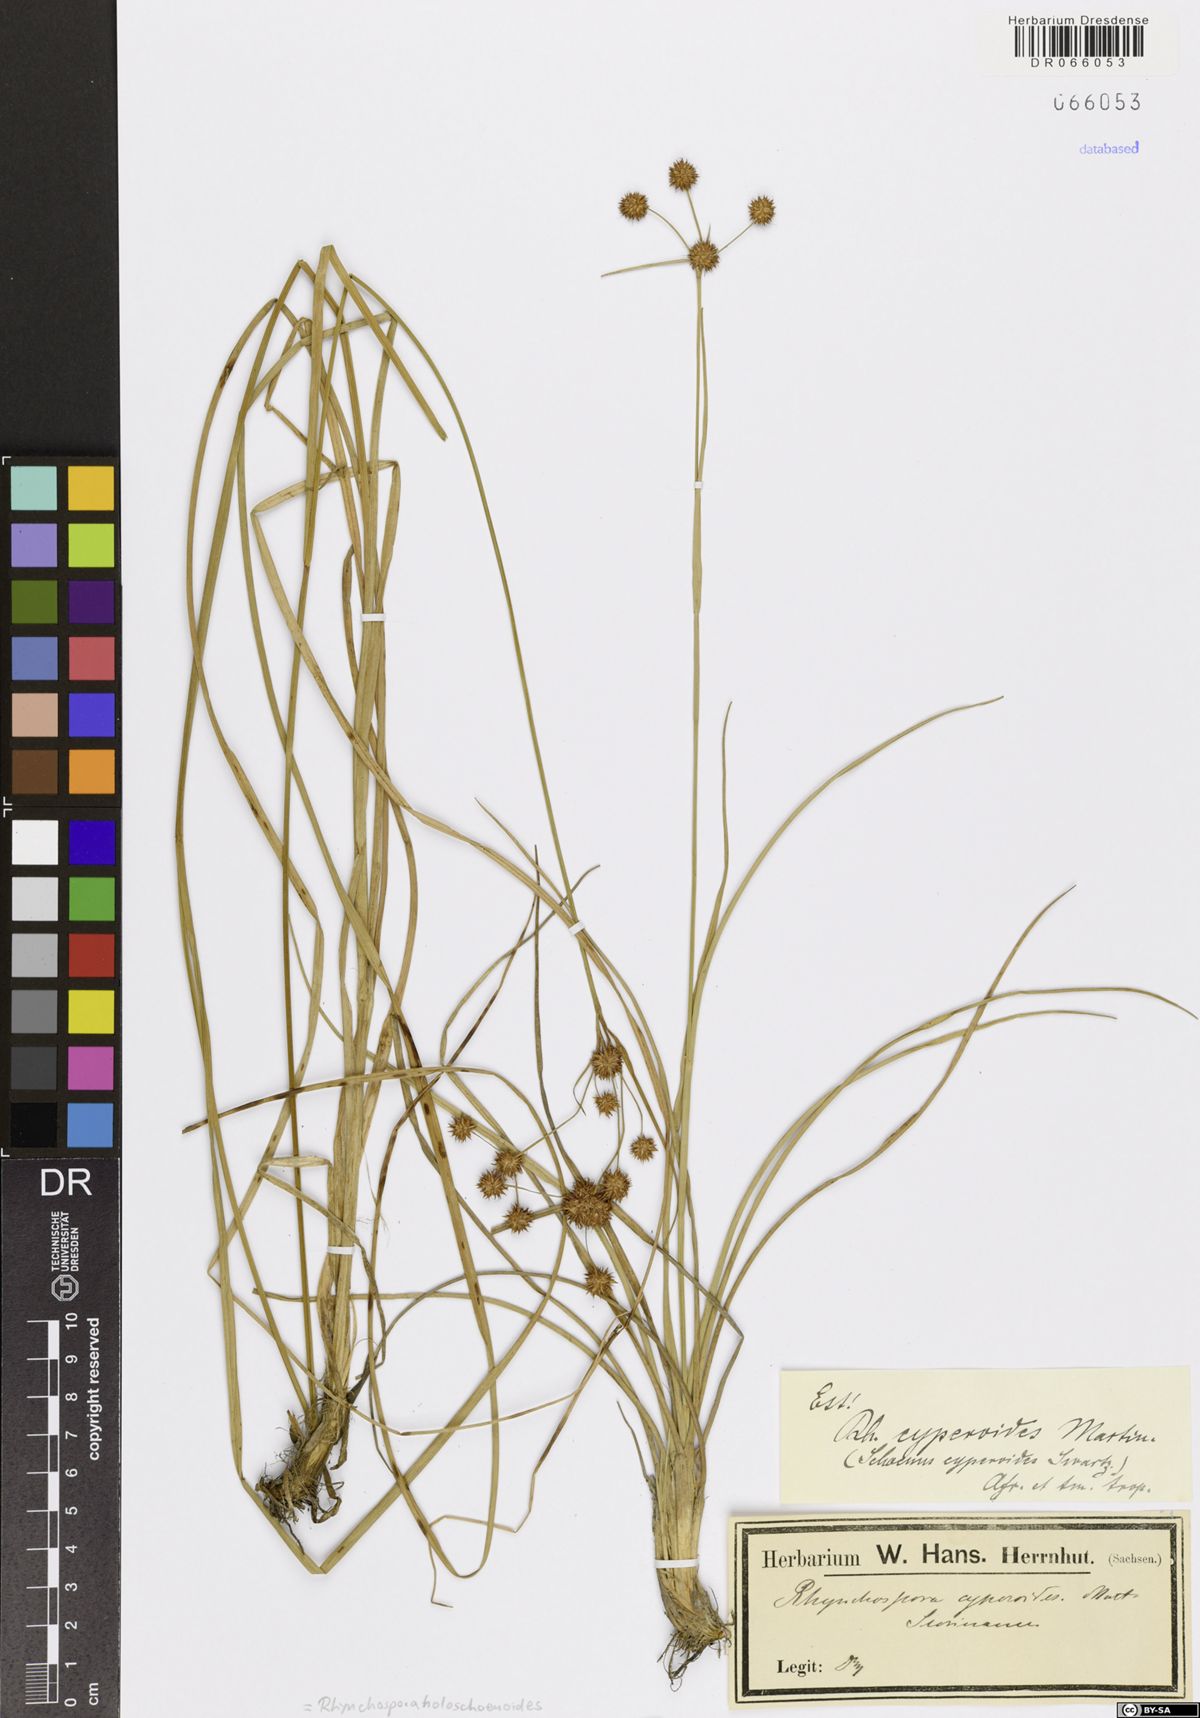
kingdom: Plantae
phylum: Tracheophyta
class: Liliopsida
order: Poales
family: Cyperaceae
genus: Rhynchospora
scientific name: Rhynchospora holoschoenoides
